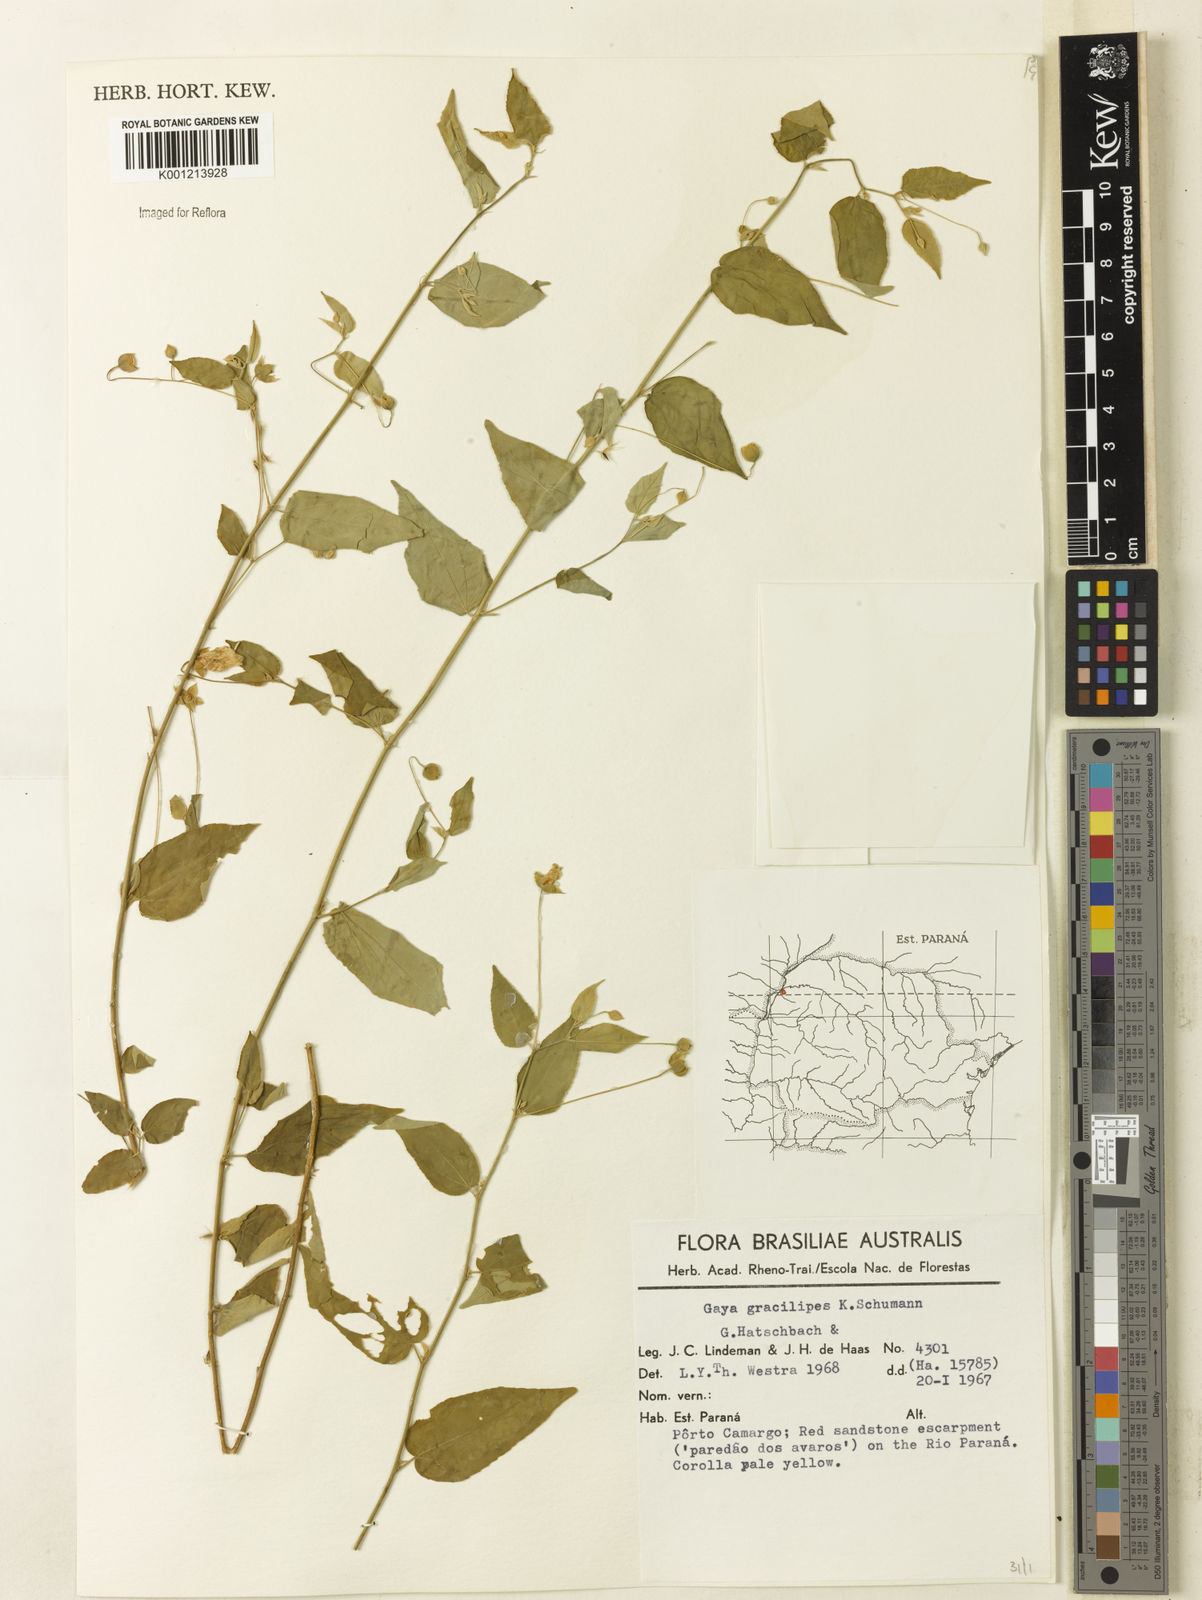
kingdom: Plantae
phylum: Tracheophyta
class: Magnoliopsida
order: Malvales
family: Malvaceae
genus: Gaya
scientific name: Gaya gracilipes
